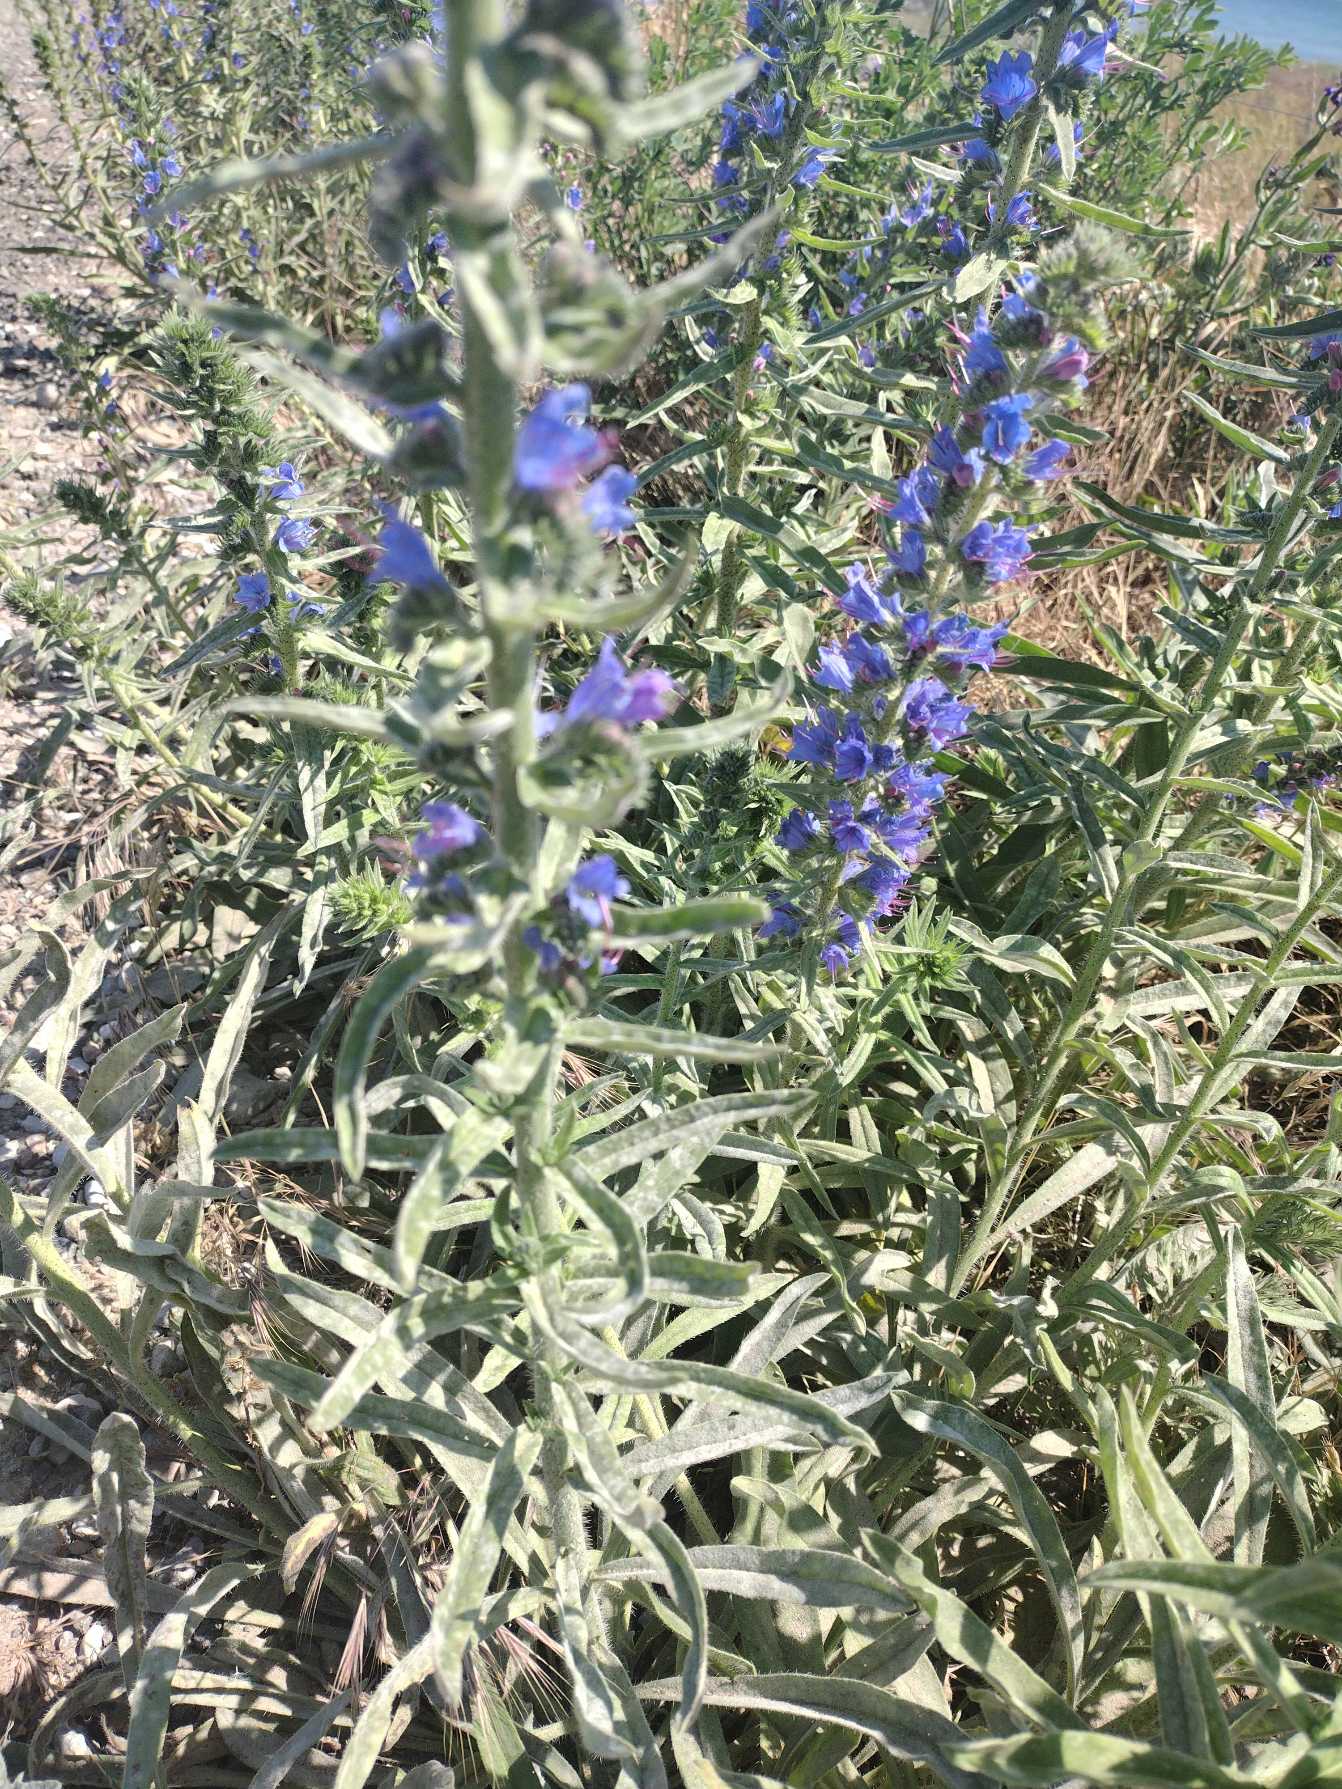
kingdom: Plantae
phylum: Tracheophyta
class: Magnoliopsida
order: Boraginales
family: Boraginaceae
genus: Echium
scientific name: Echium vulgare
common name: Slangehoved
